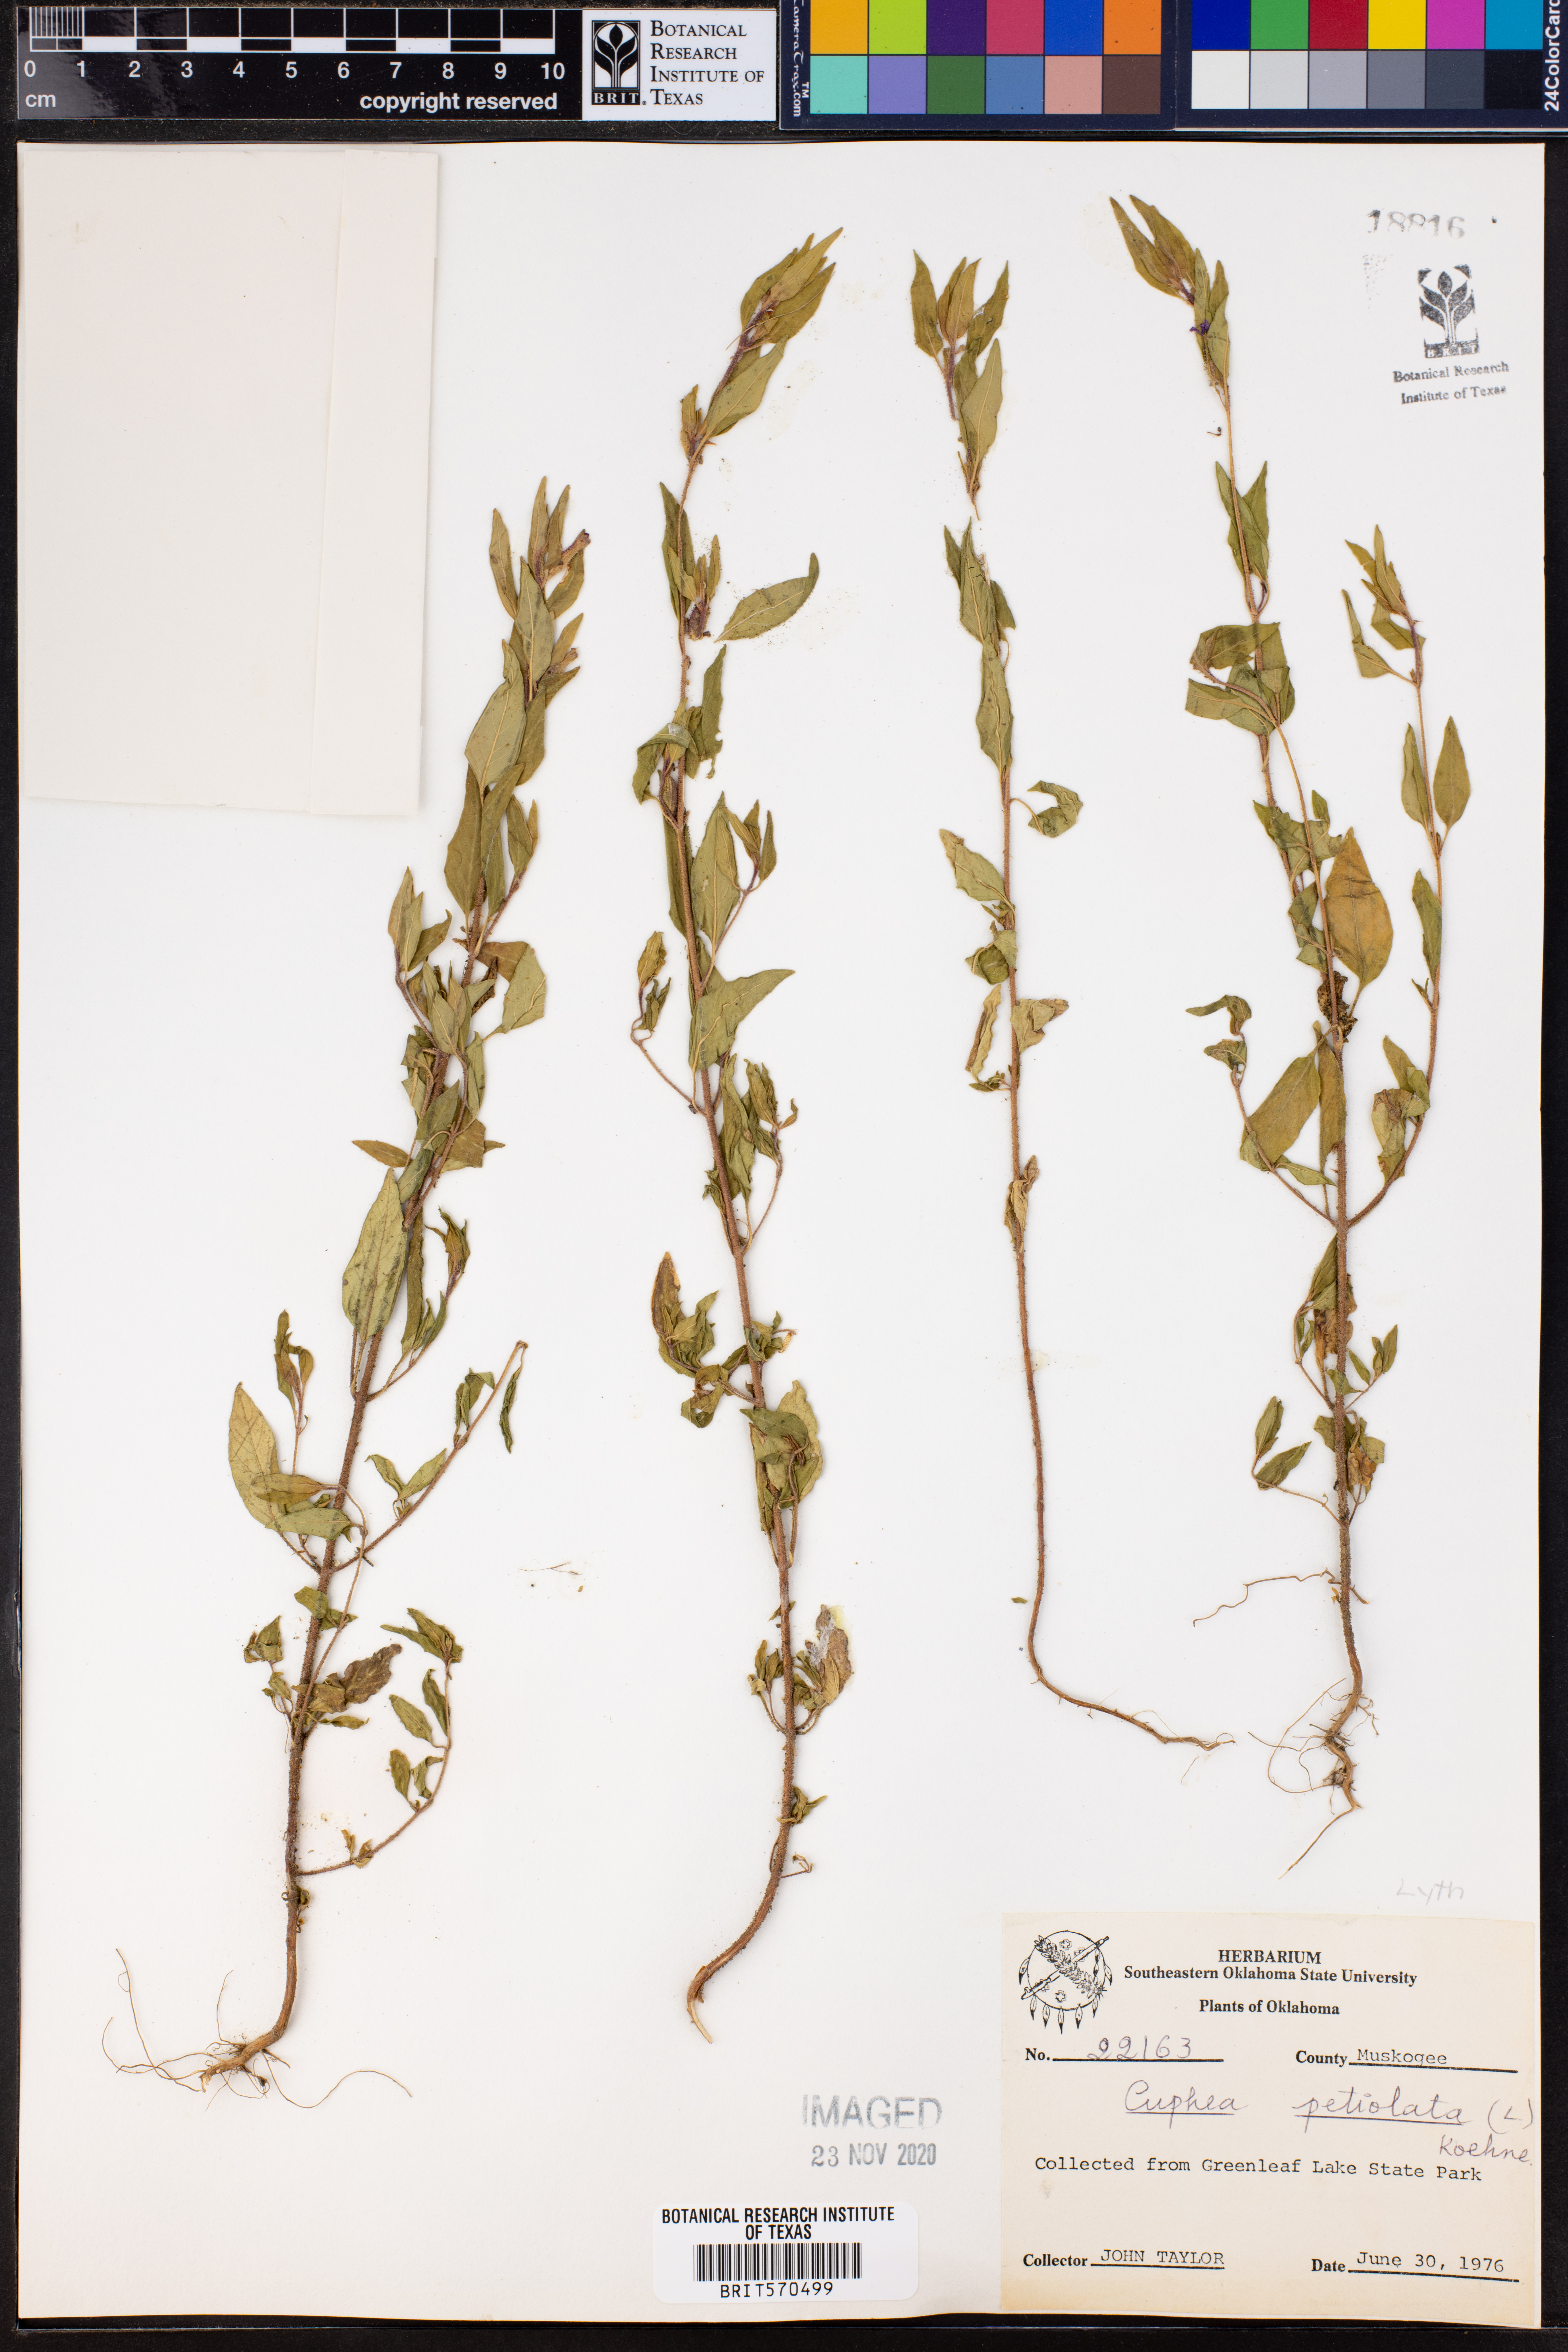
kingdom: Plantae
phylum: Tracheophyta
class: Magnoliopsida
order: Myrtales
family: Lythraceae
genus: Cuphea
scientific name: Cuphea viscosissima
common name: Clammy cuphea
